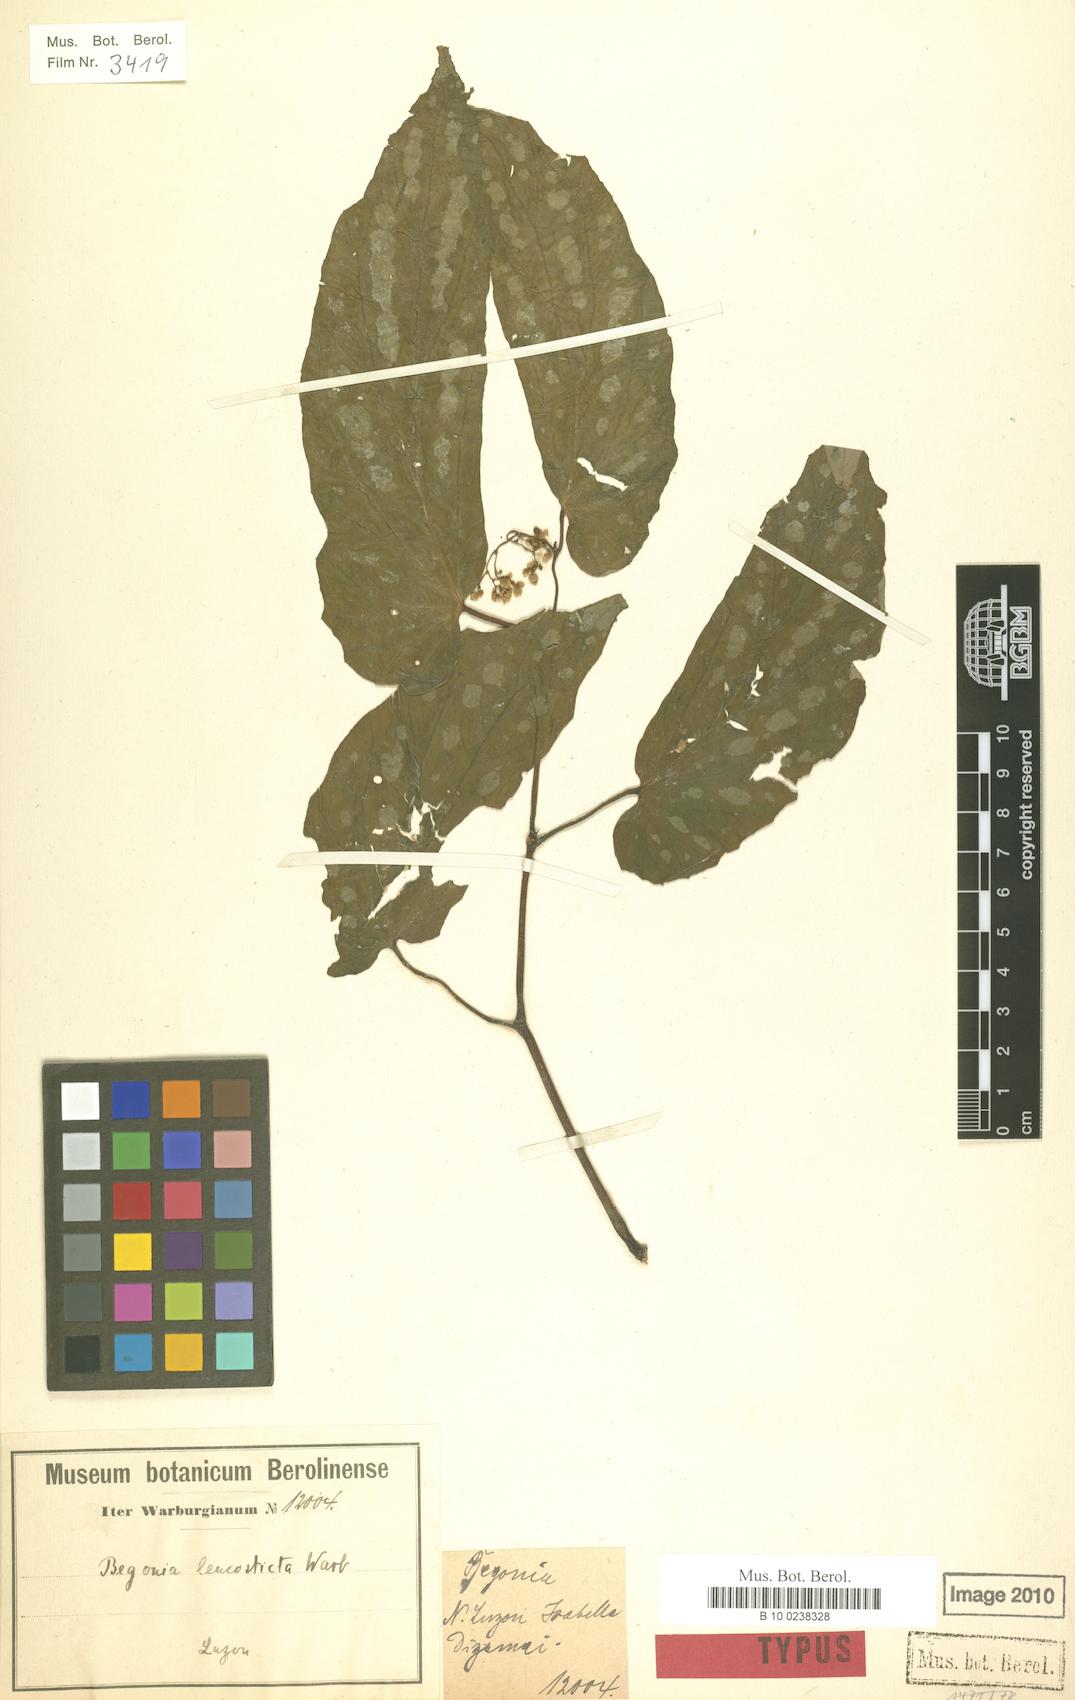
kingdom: Plantae
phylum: Tracheophyta
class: Magnoliopsida
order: Cucurbitales
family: Begoniaceae
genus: Begonia
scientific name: Begonia leucosticta
